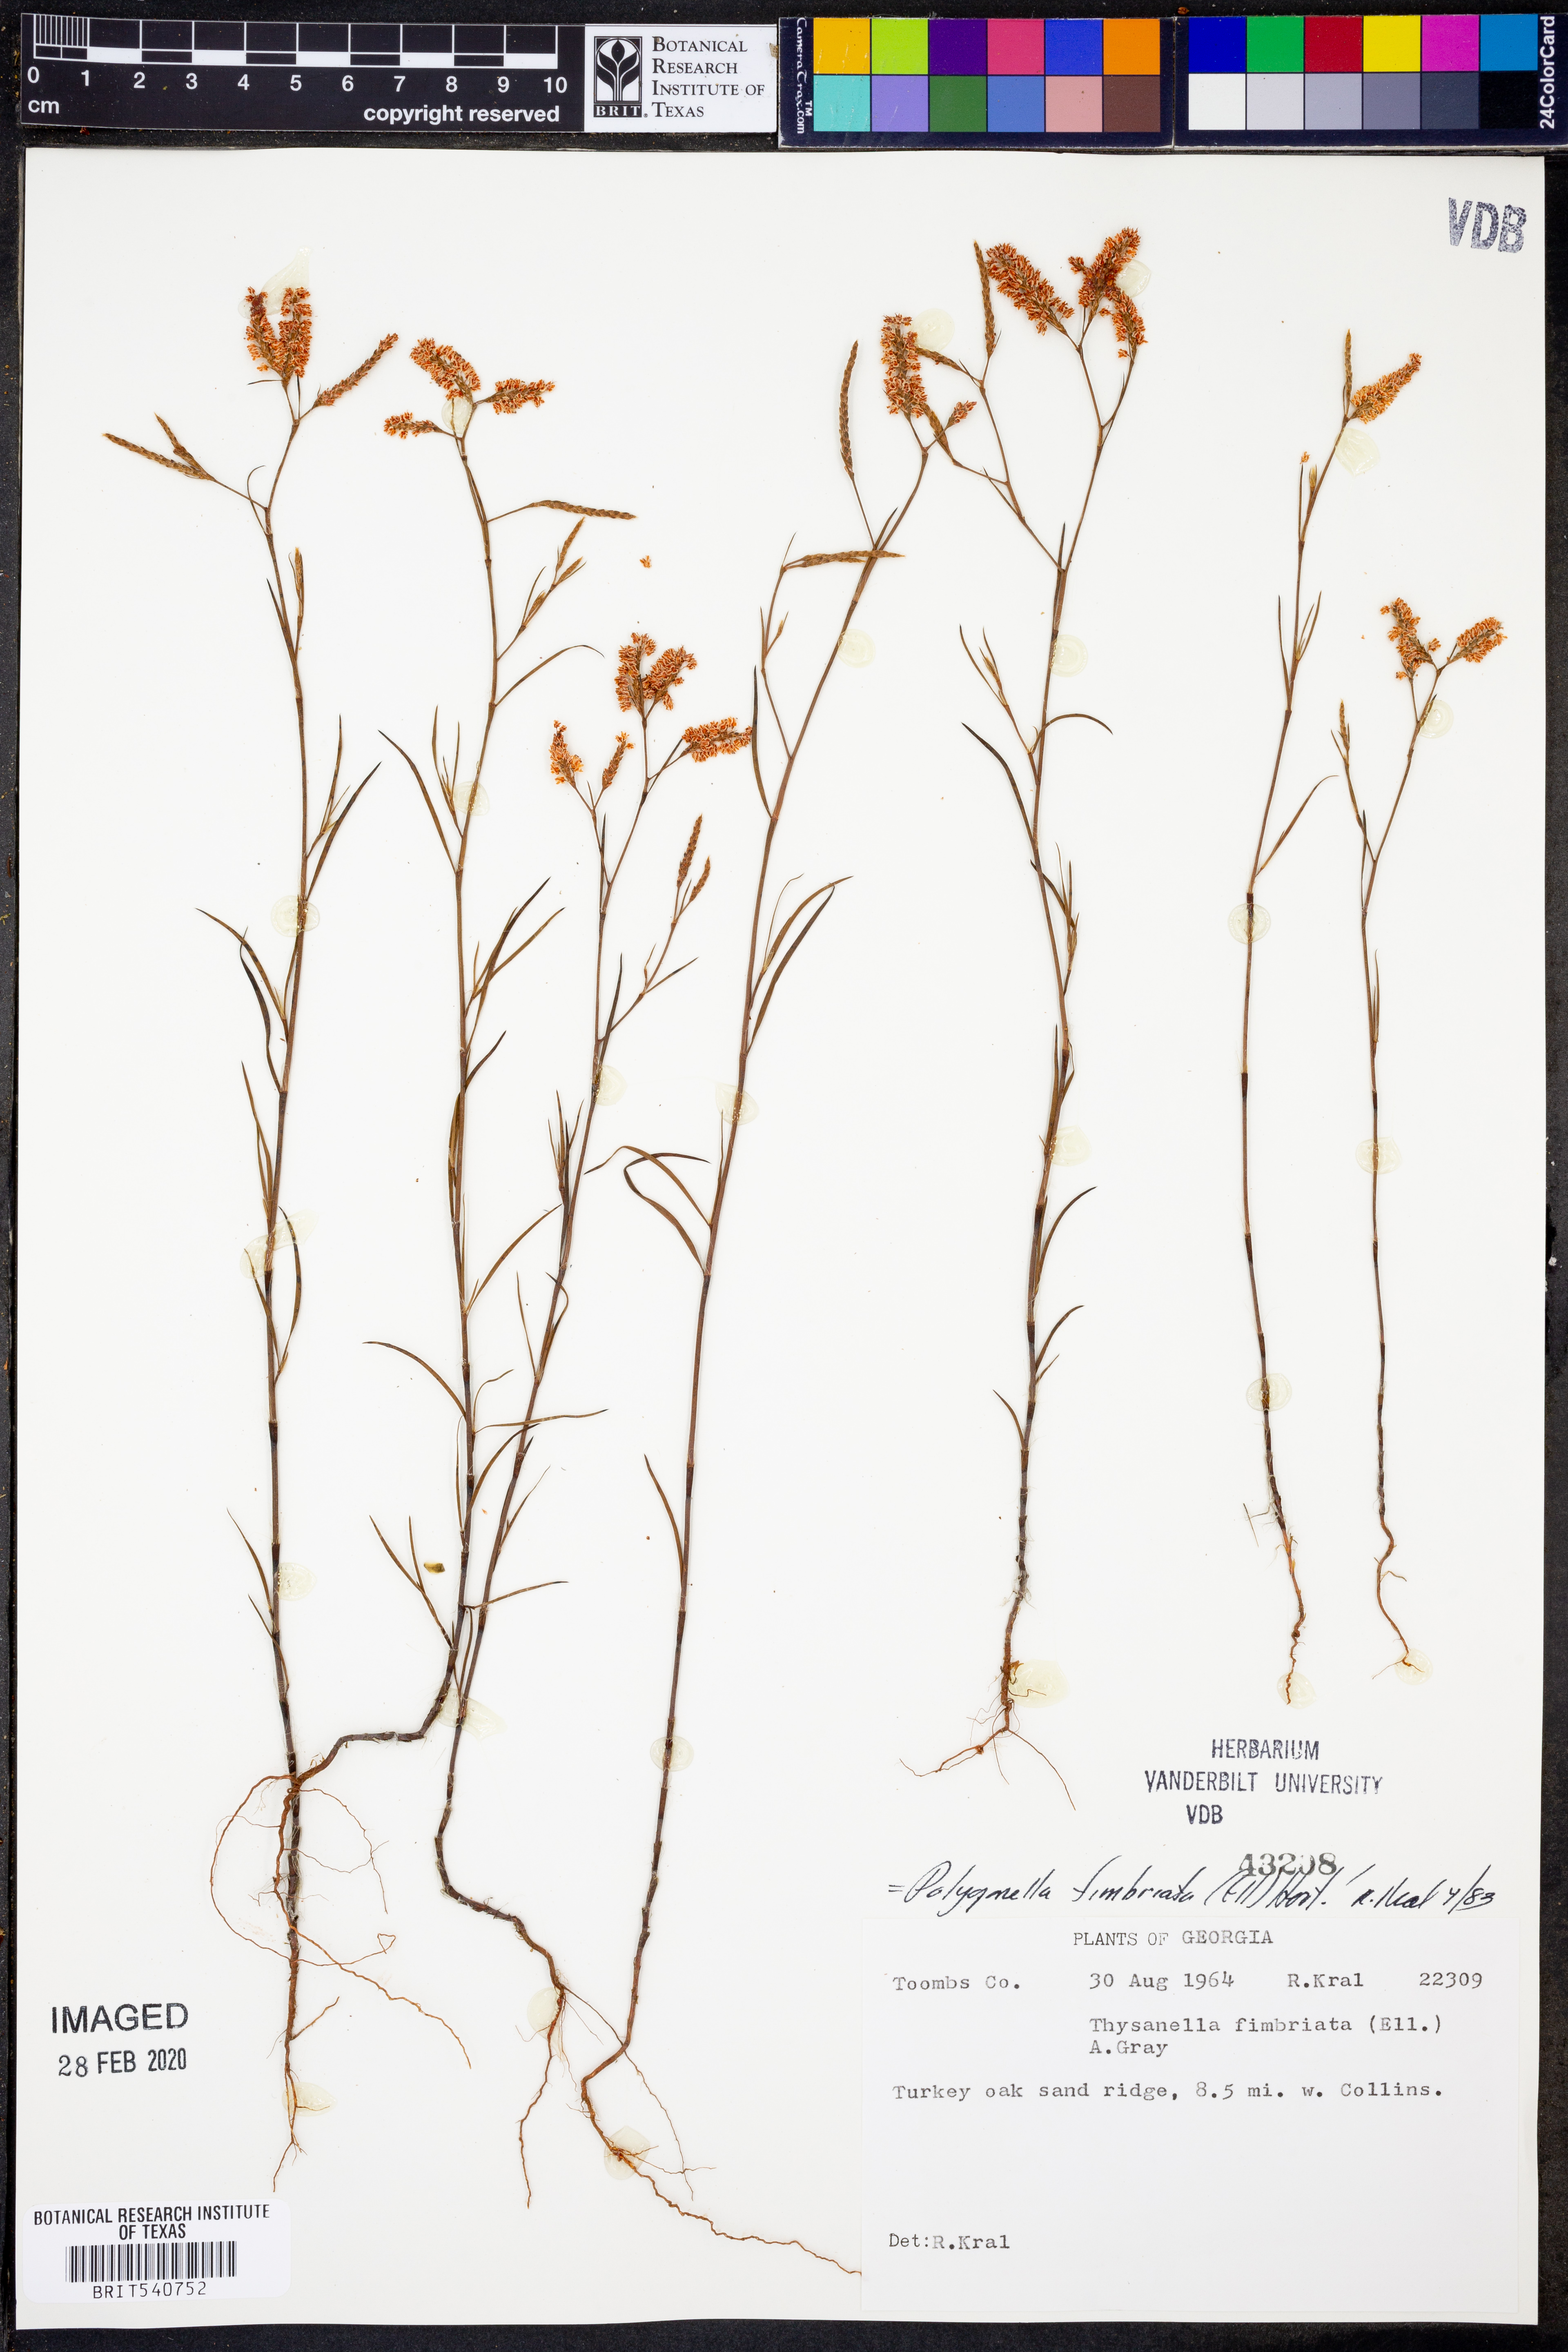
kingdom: Plantae
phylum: Tracheophyta
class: Magnoliopsida
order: Caryophyllales
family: Polygonaceae
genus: Polygonella
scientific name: Polygonella fimbriata
